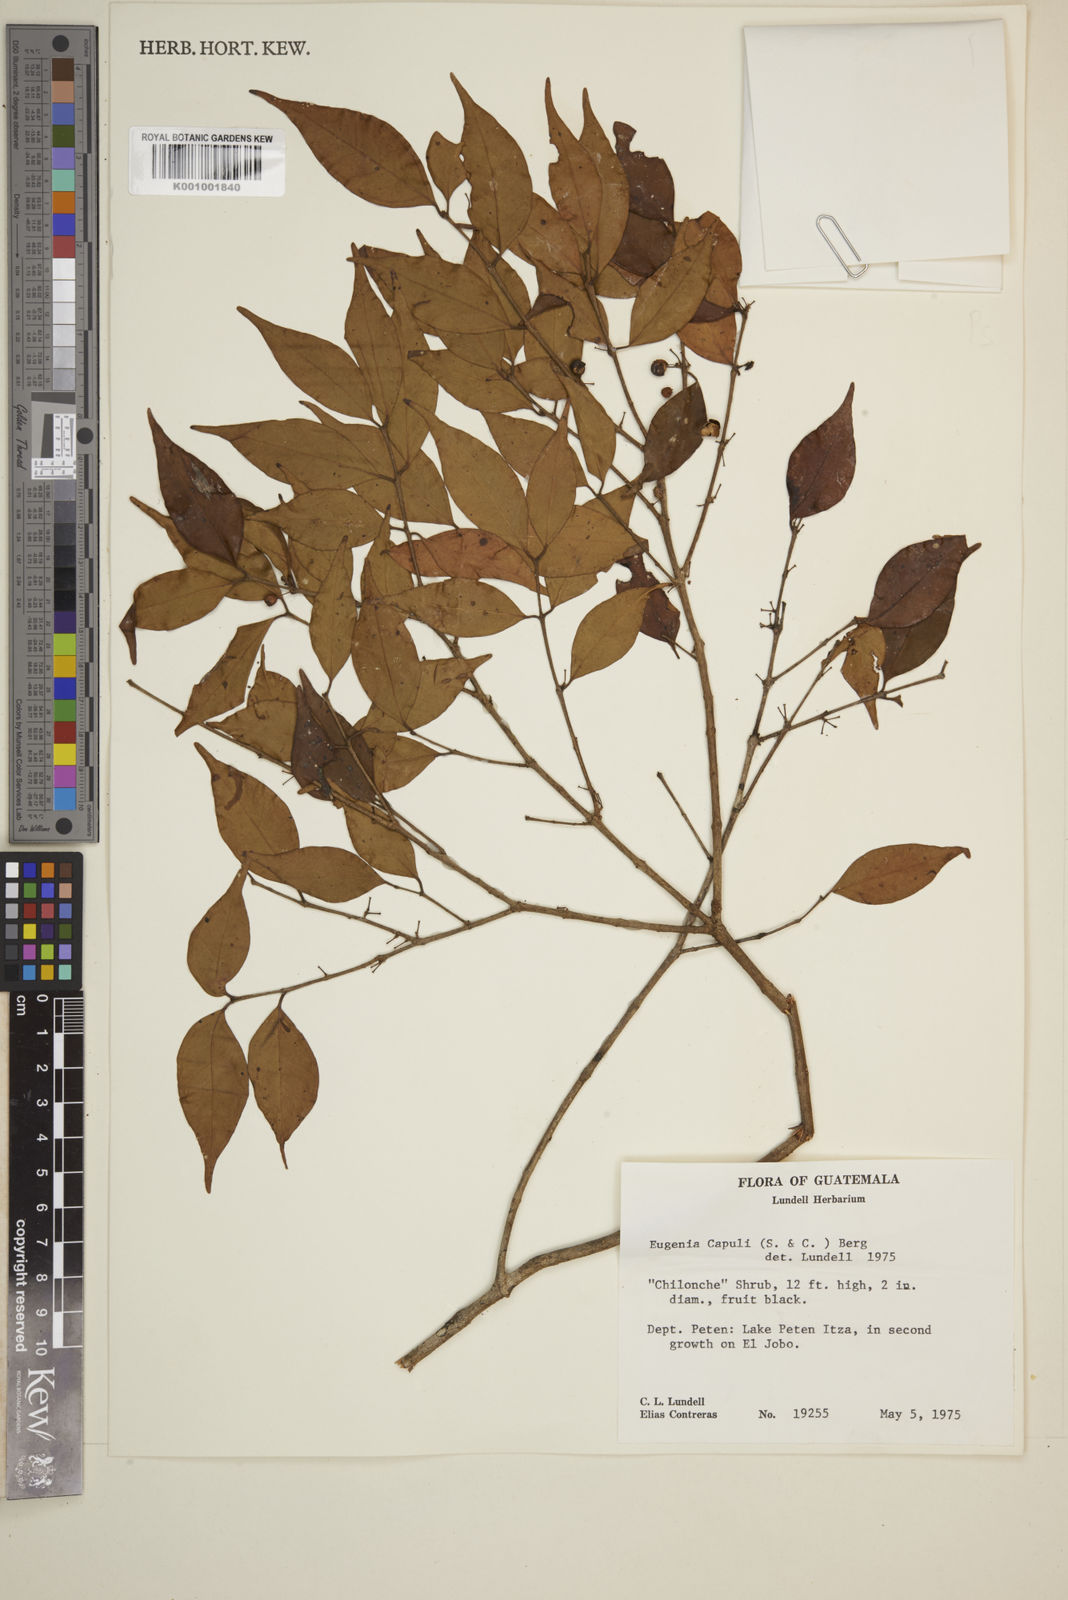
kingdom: Plantae
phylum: Tracheophyta
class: Magnoliopsida
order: Myrtales
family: Myrtaceae
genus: Eugenia
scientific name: Eugenia capuli
